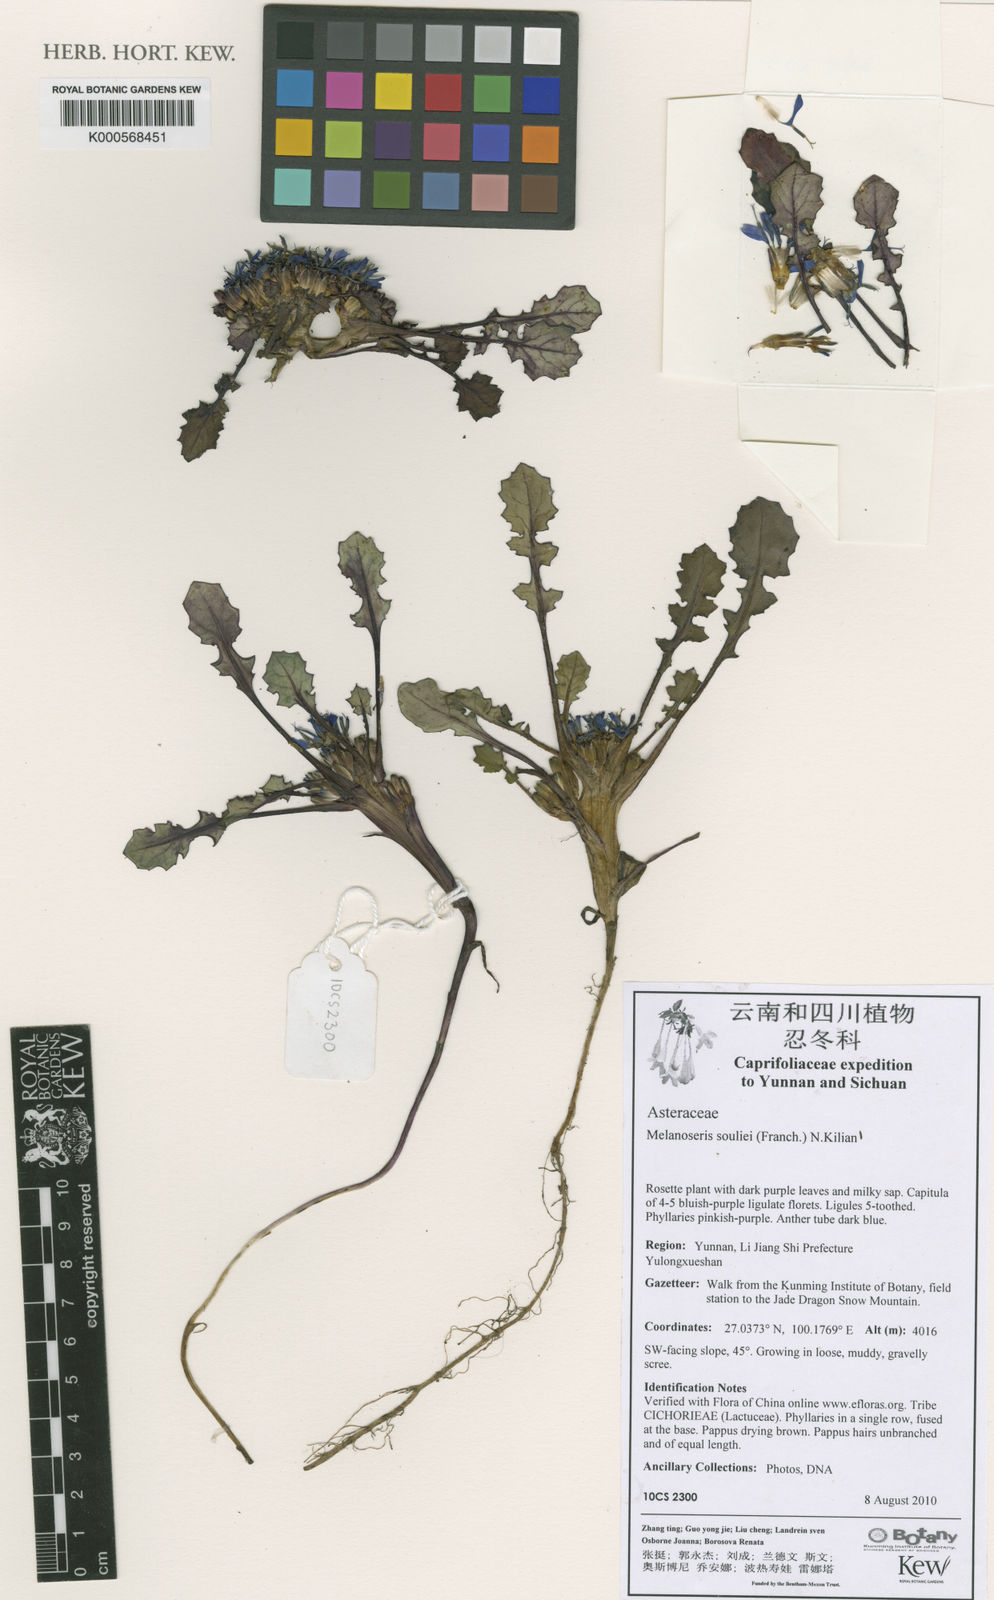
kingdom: Plantae
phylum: Tracheophyta
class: Magnoliopsida
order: Asterales
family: Asteraceae
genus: Melanoseris
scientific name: Melanoseris souliei
